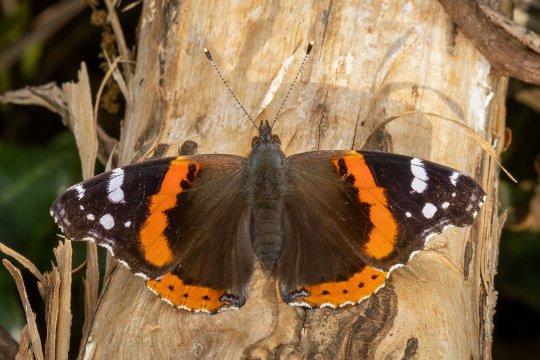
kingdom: Animalia
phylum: Arthropoda
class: Insecta
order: Lepidoptera
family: Nymphalidae
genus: Vanessa
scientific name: Vanessa atalanta
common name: Red Admiral
